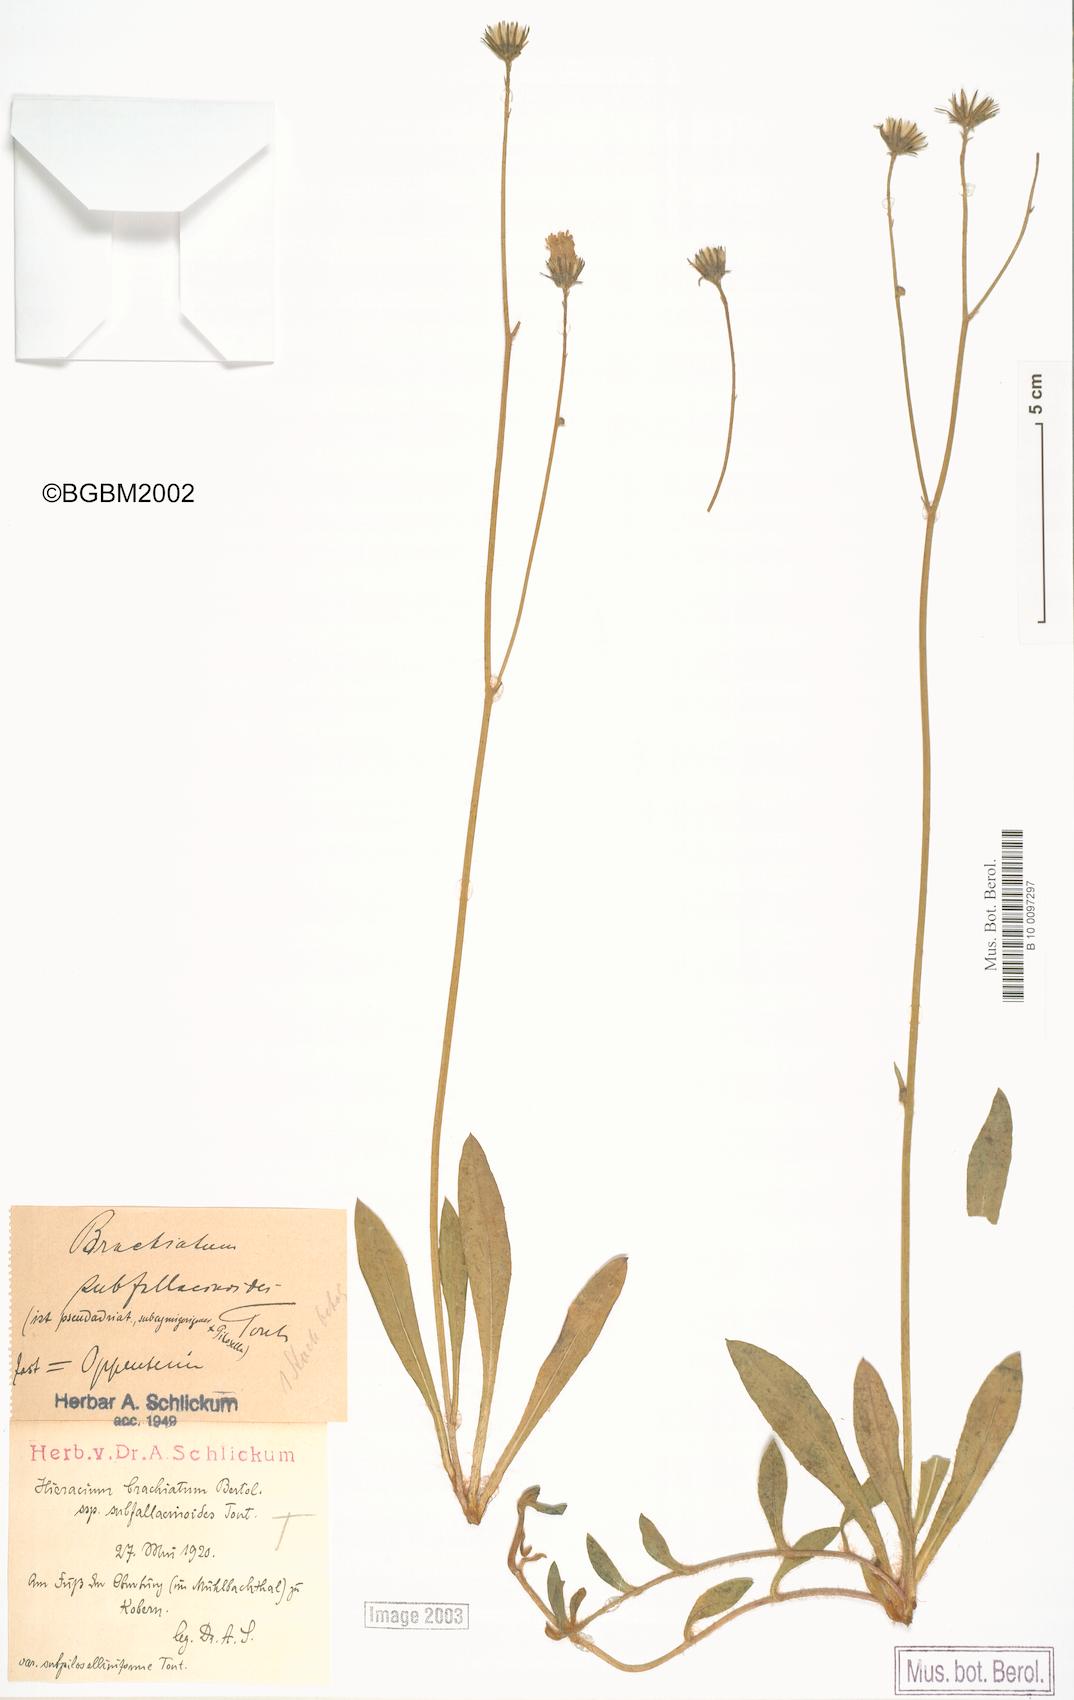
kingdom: Plantae
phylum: Tracheophyta
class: Magnoliopsida
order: Asterales
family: Asteraceae
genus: Pilosella
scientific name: Pilosella acutifolia
